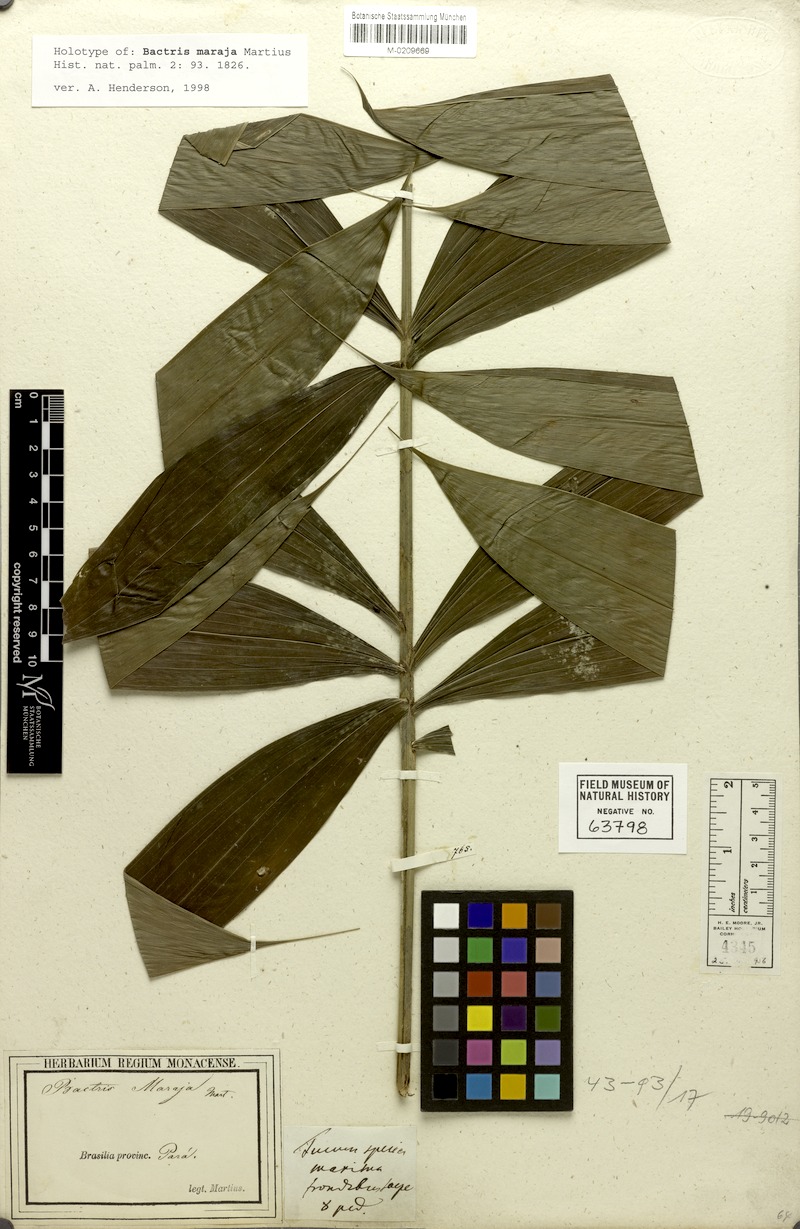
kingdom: Plantae
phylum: Tracheophyta
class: Liliopsida
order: Arecales
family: Arecaceae
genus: Bactris
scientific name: Bactris maraja
